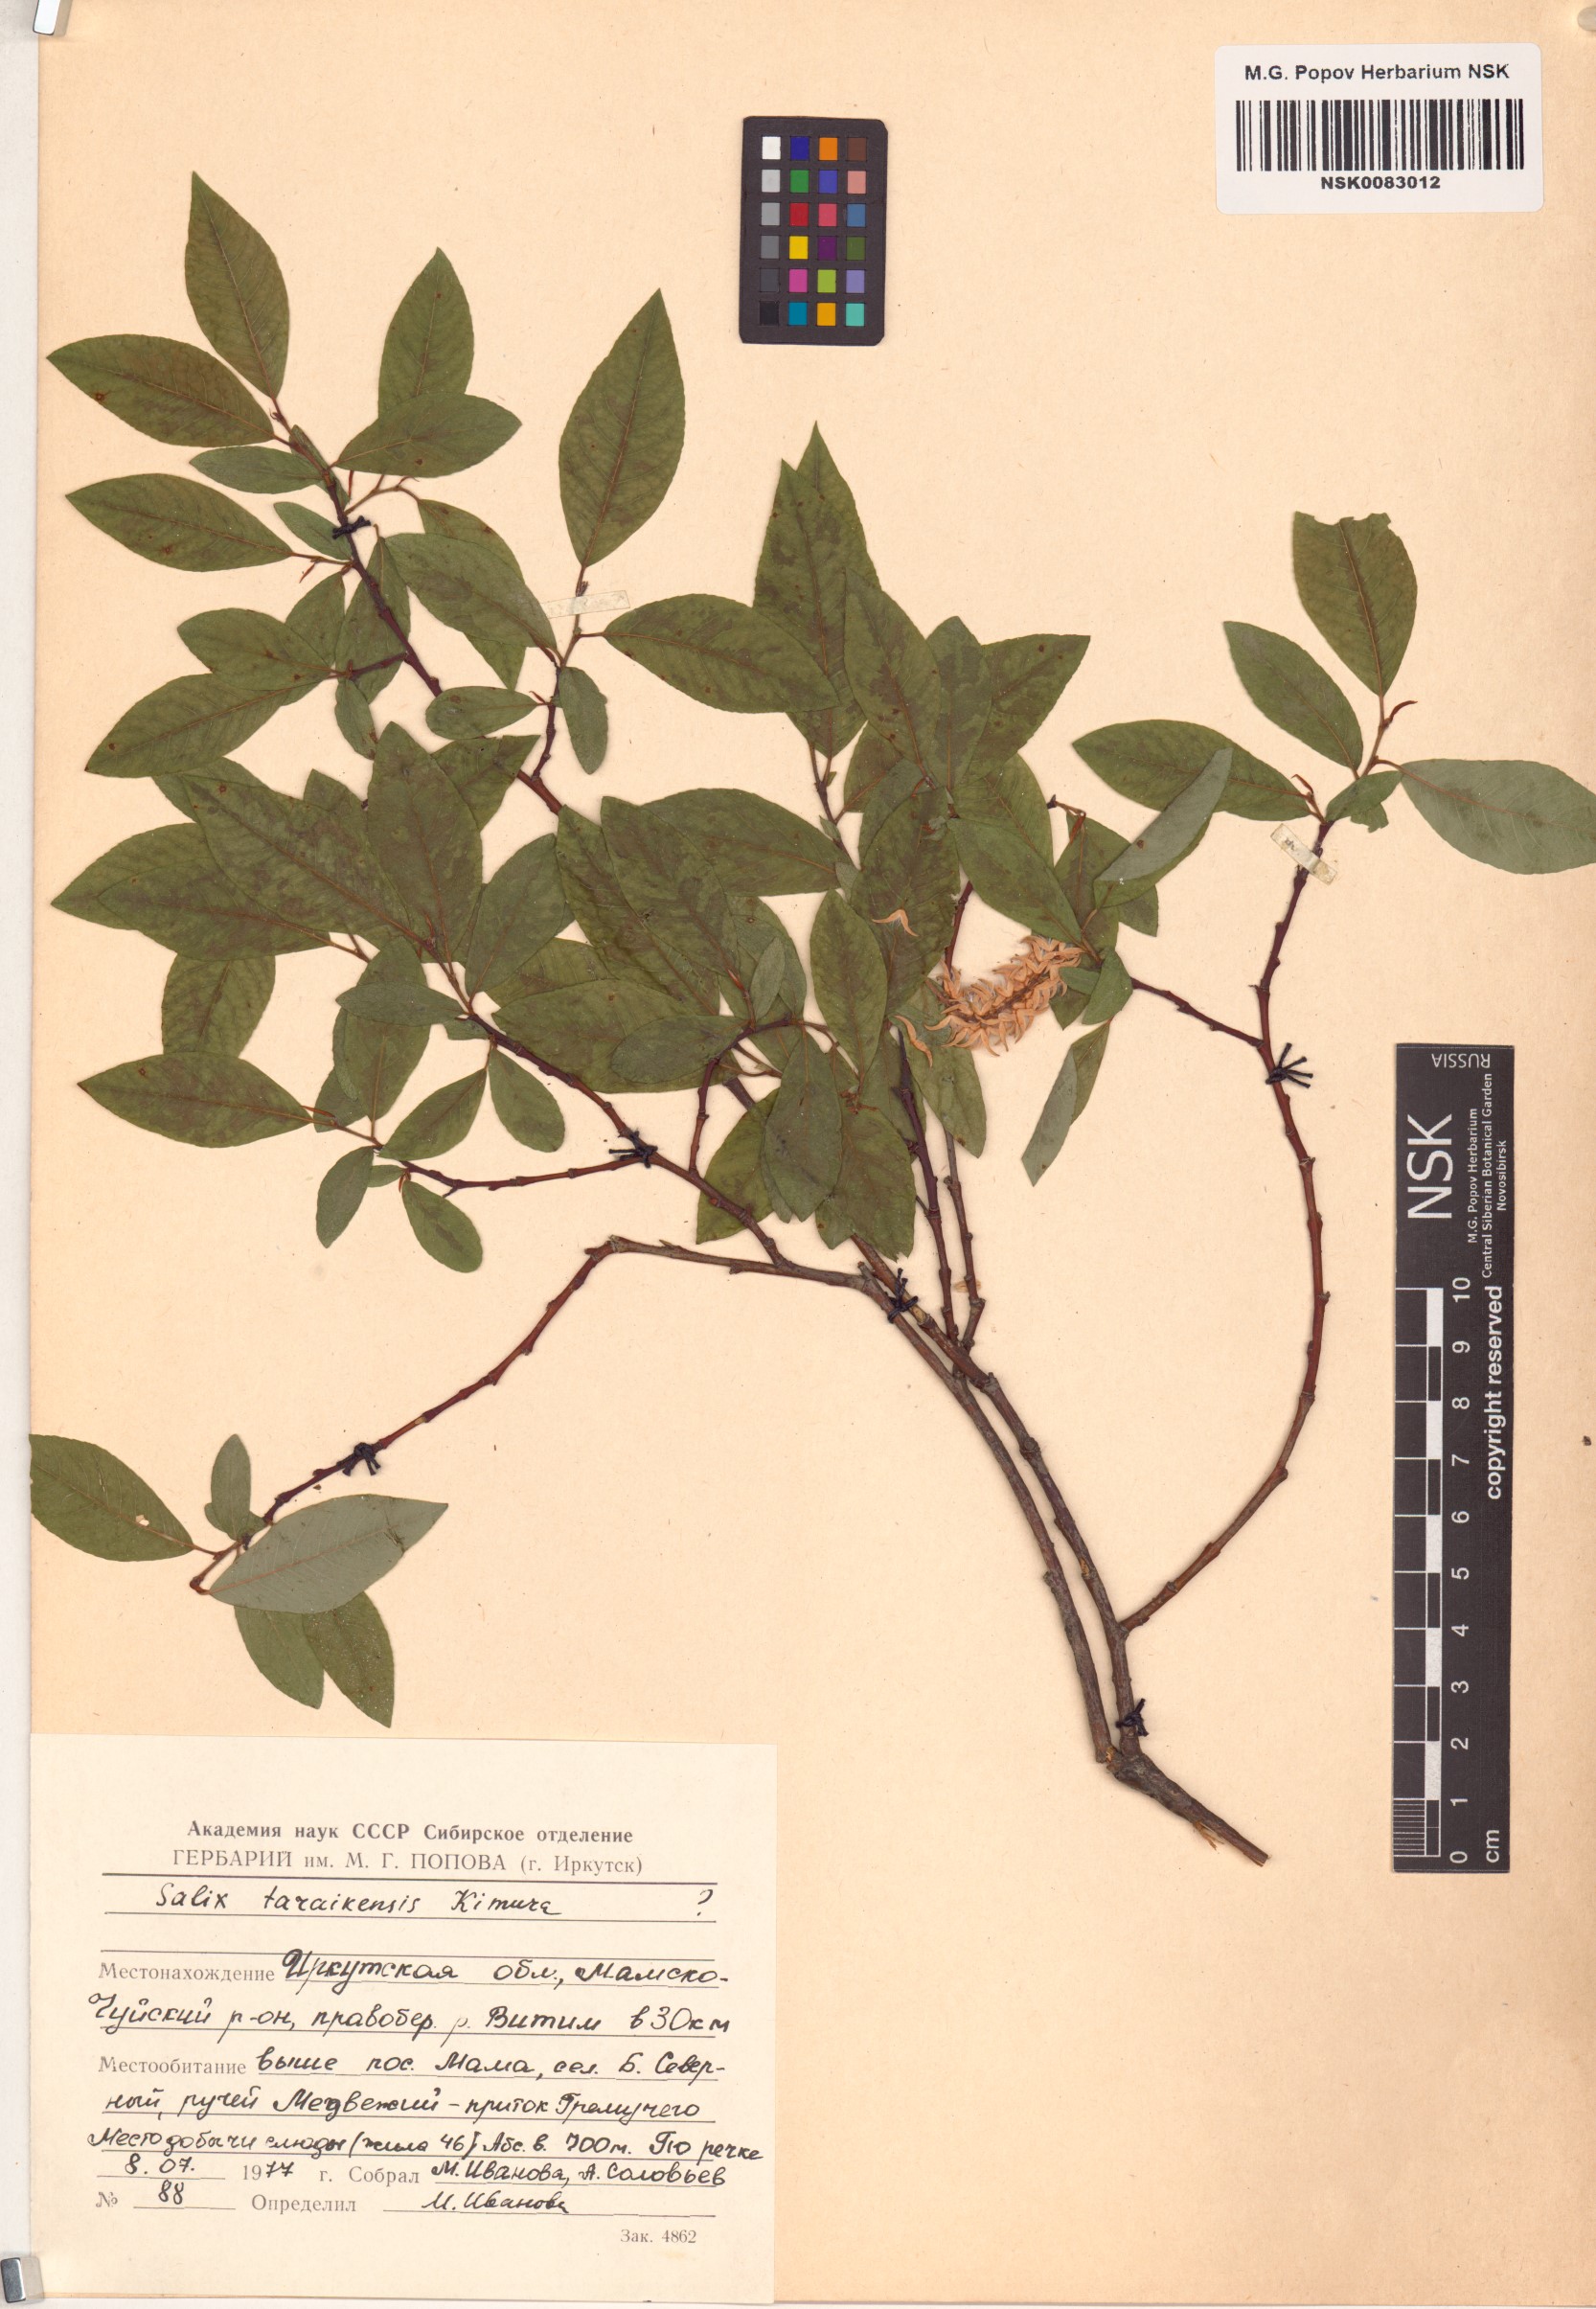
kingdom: Plantae
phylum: Tracheophyta
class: Magnoliopsida
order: Malpighiales
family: Salicaceae
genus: Salix
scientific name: Salix taraikensis
